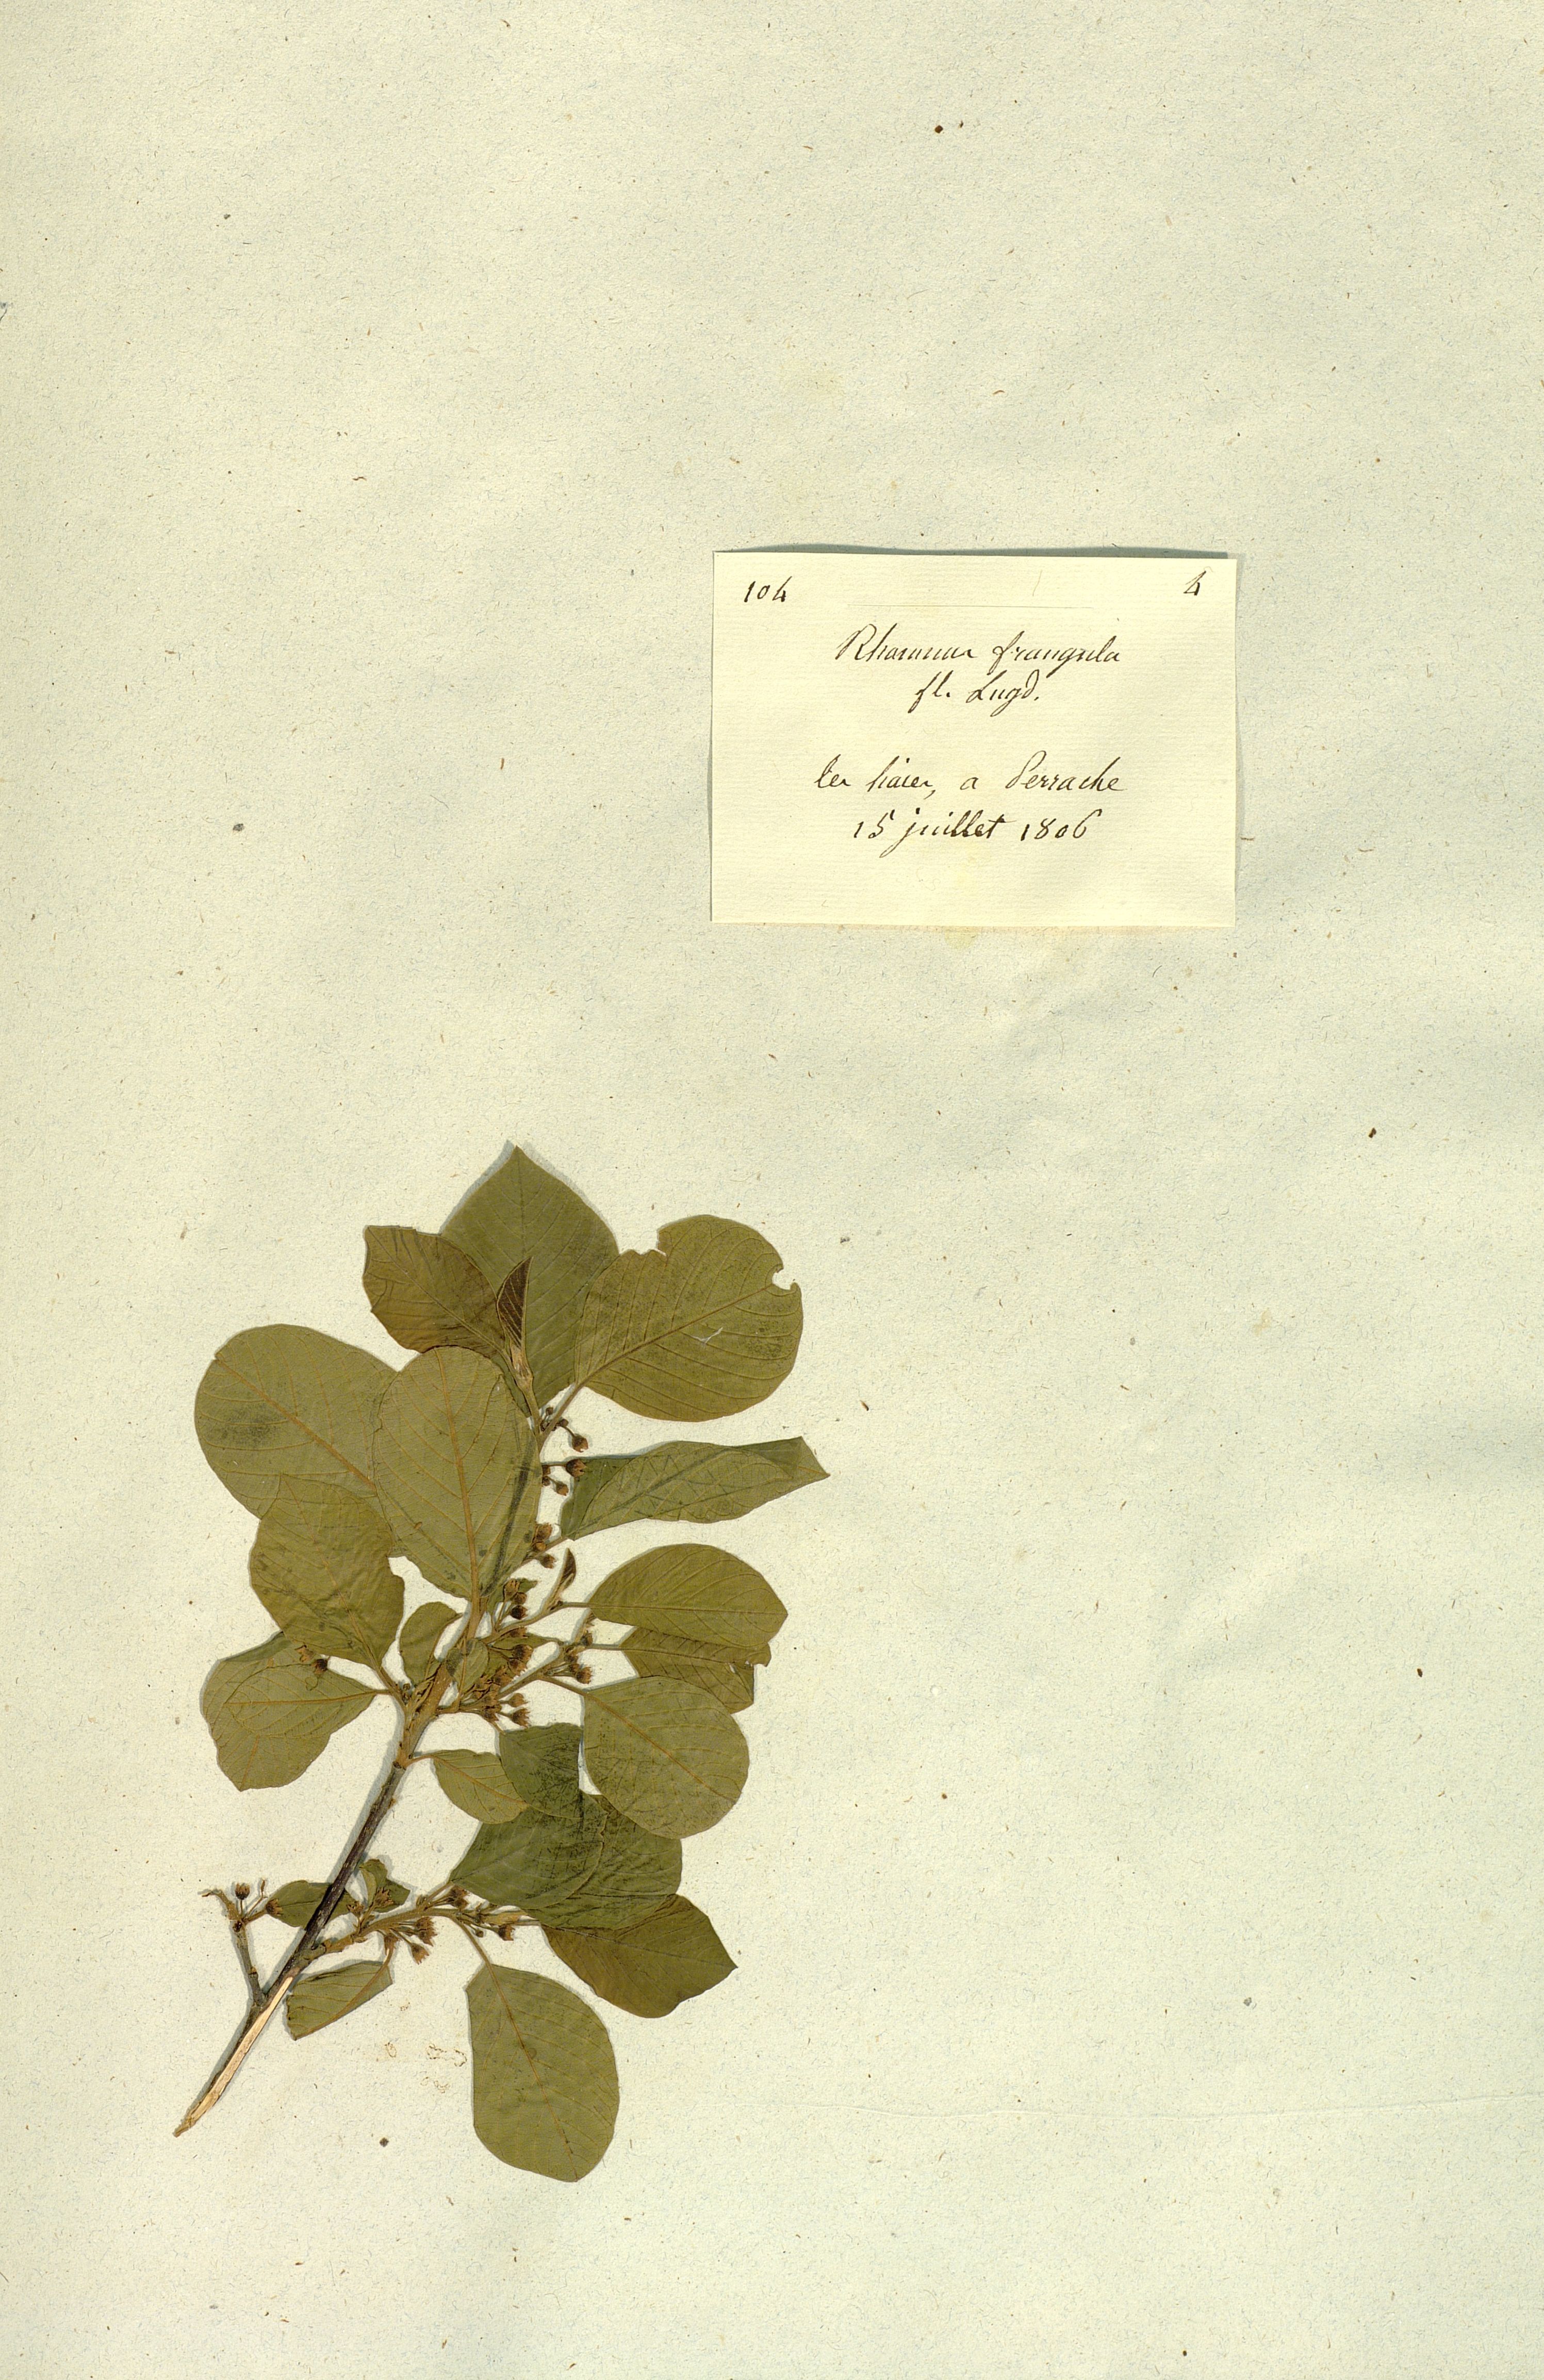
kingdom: Plantae
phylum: Tracheophyta
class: Magnoliopsida
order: Rosales
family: Rhamnaceae
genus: Frangula
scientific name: Frangula alnus
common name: Alder buckthorn
